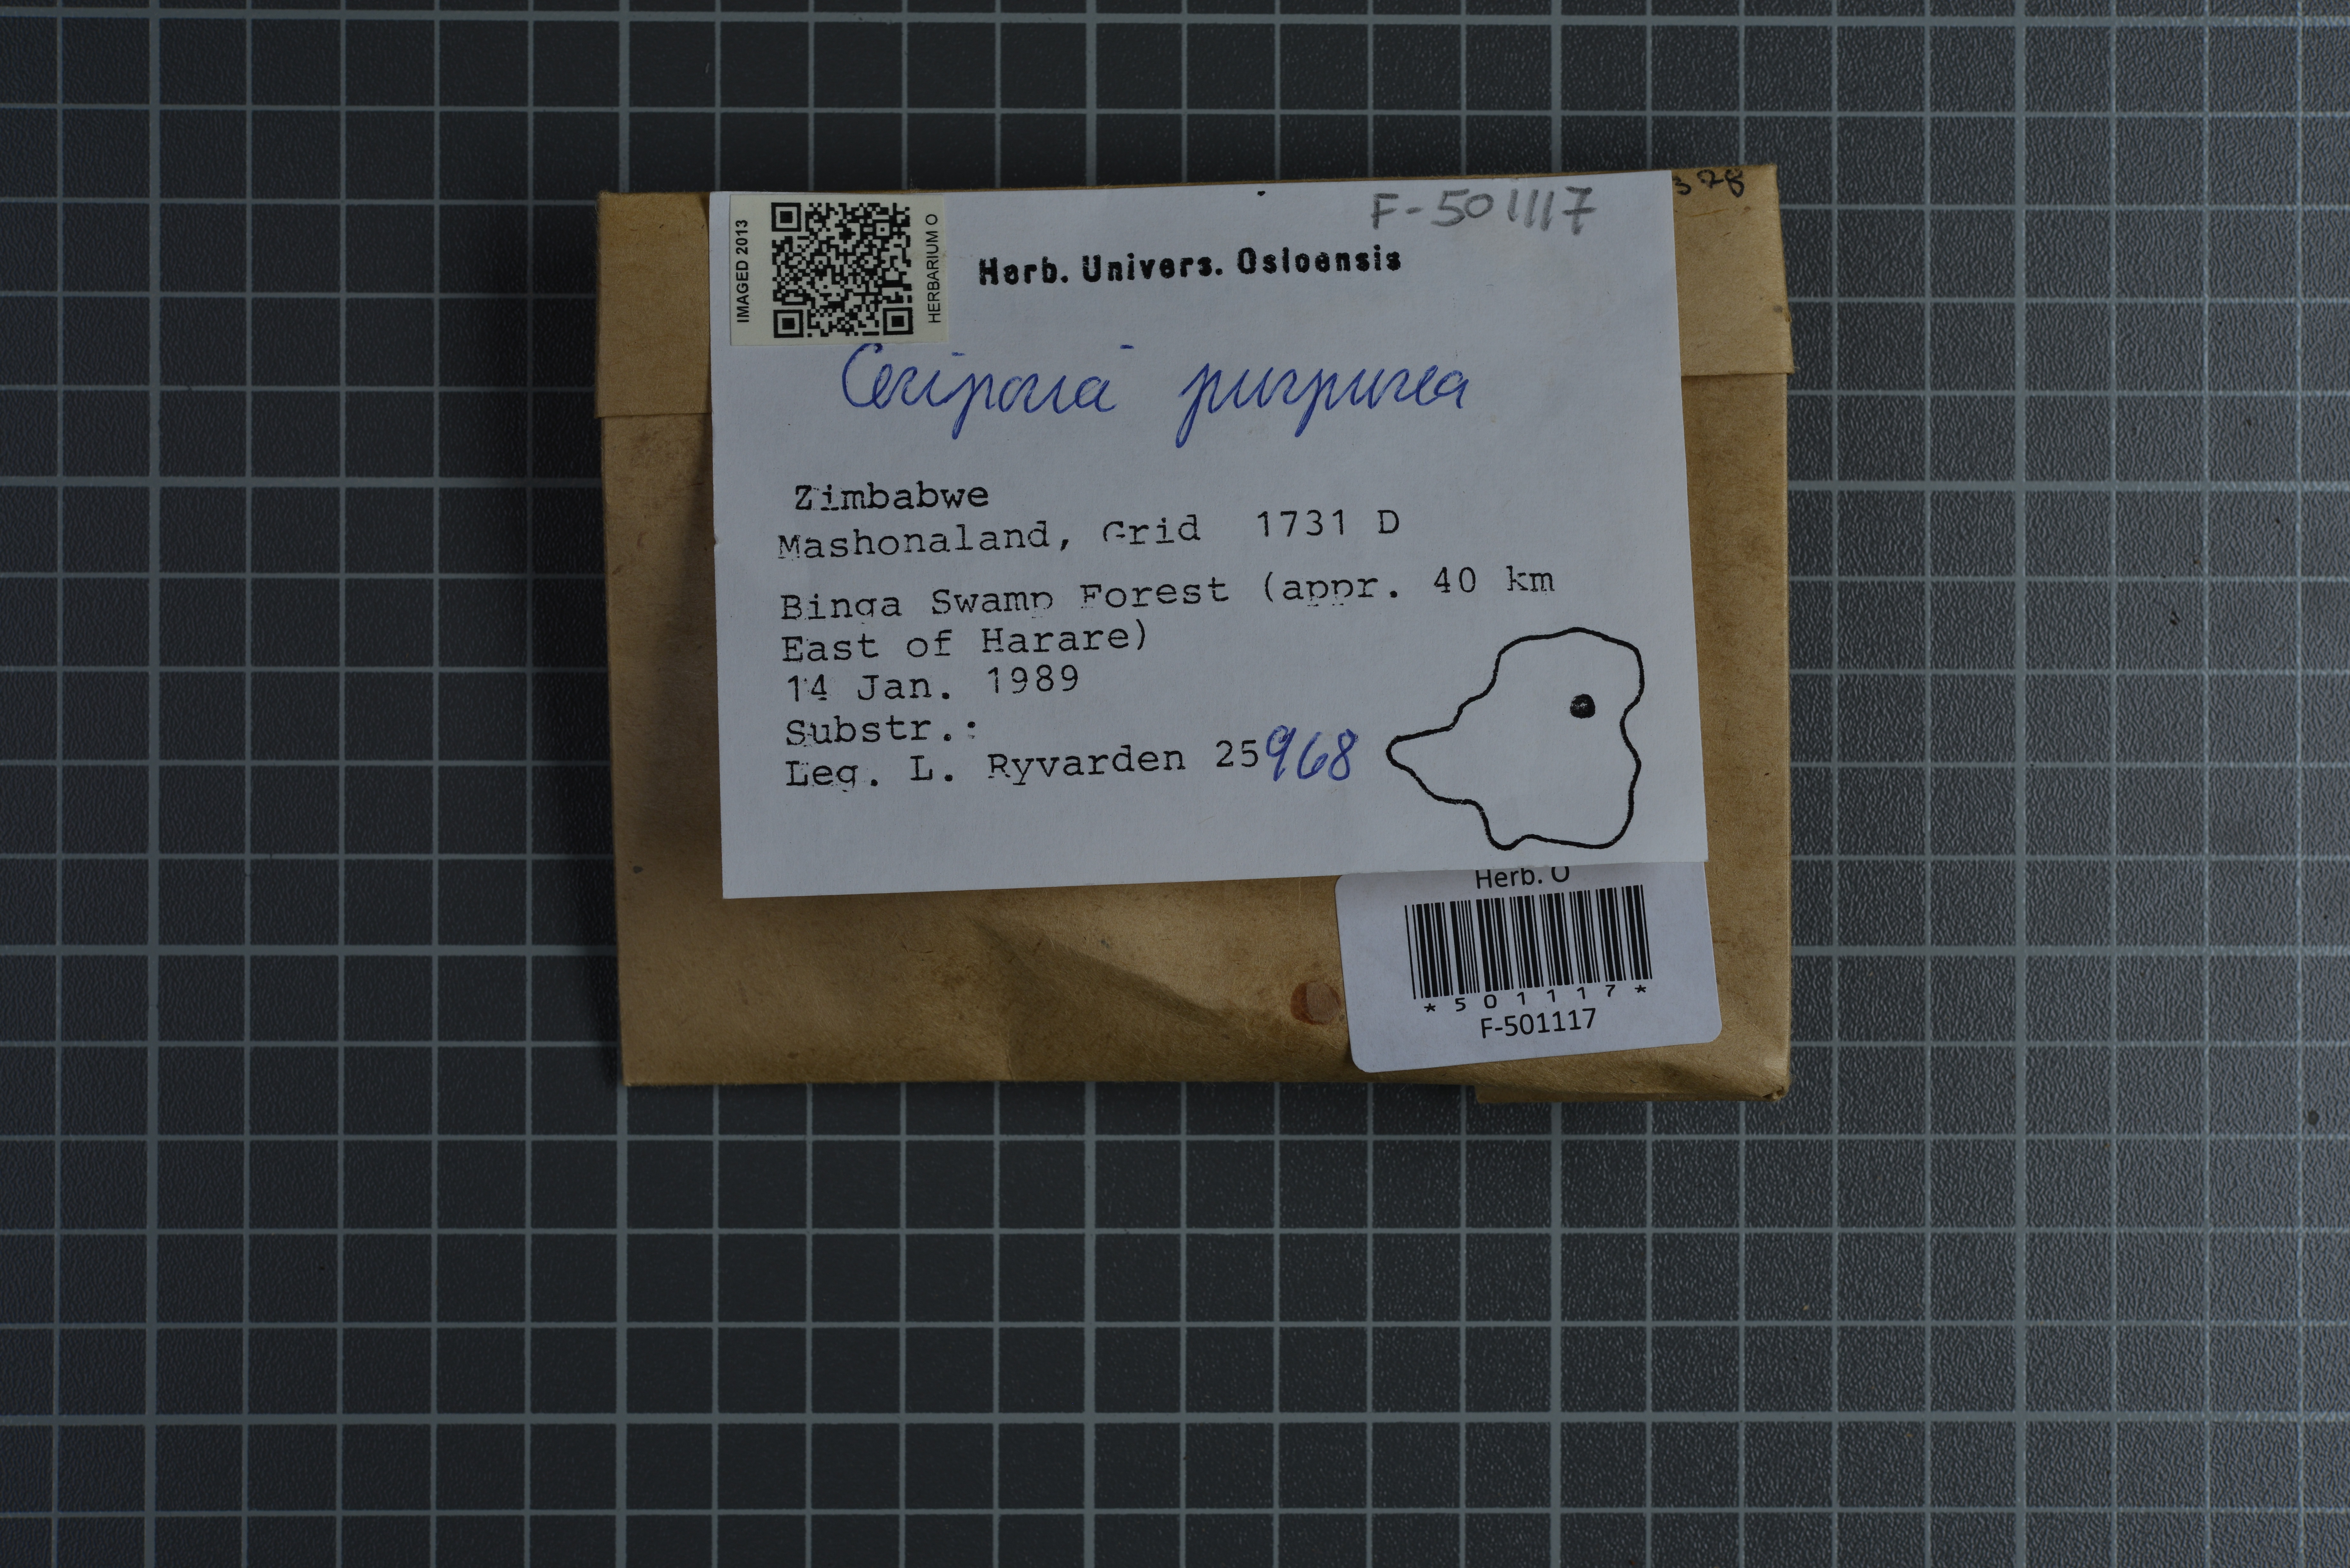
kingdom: Fungi
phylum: Basidiomycota
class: Agaricomycetes
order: Polyporales
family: Irpicaceae
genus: Ceriporia
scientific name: Ceriporia purpurea
